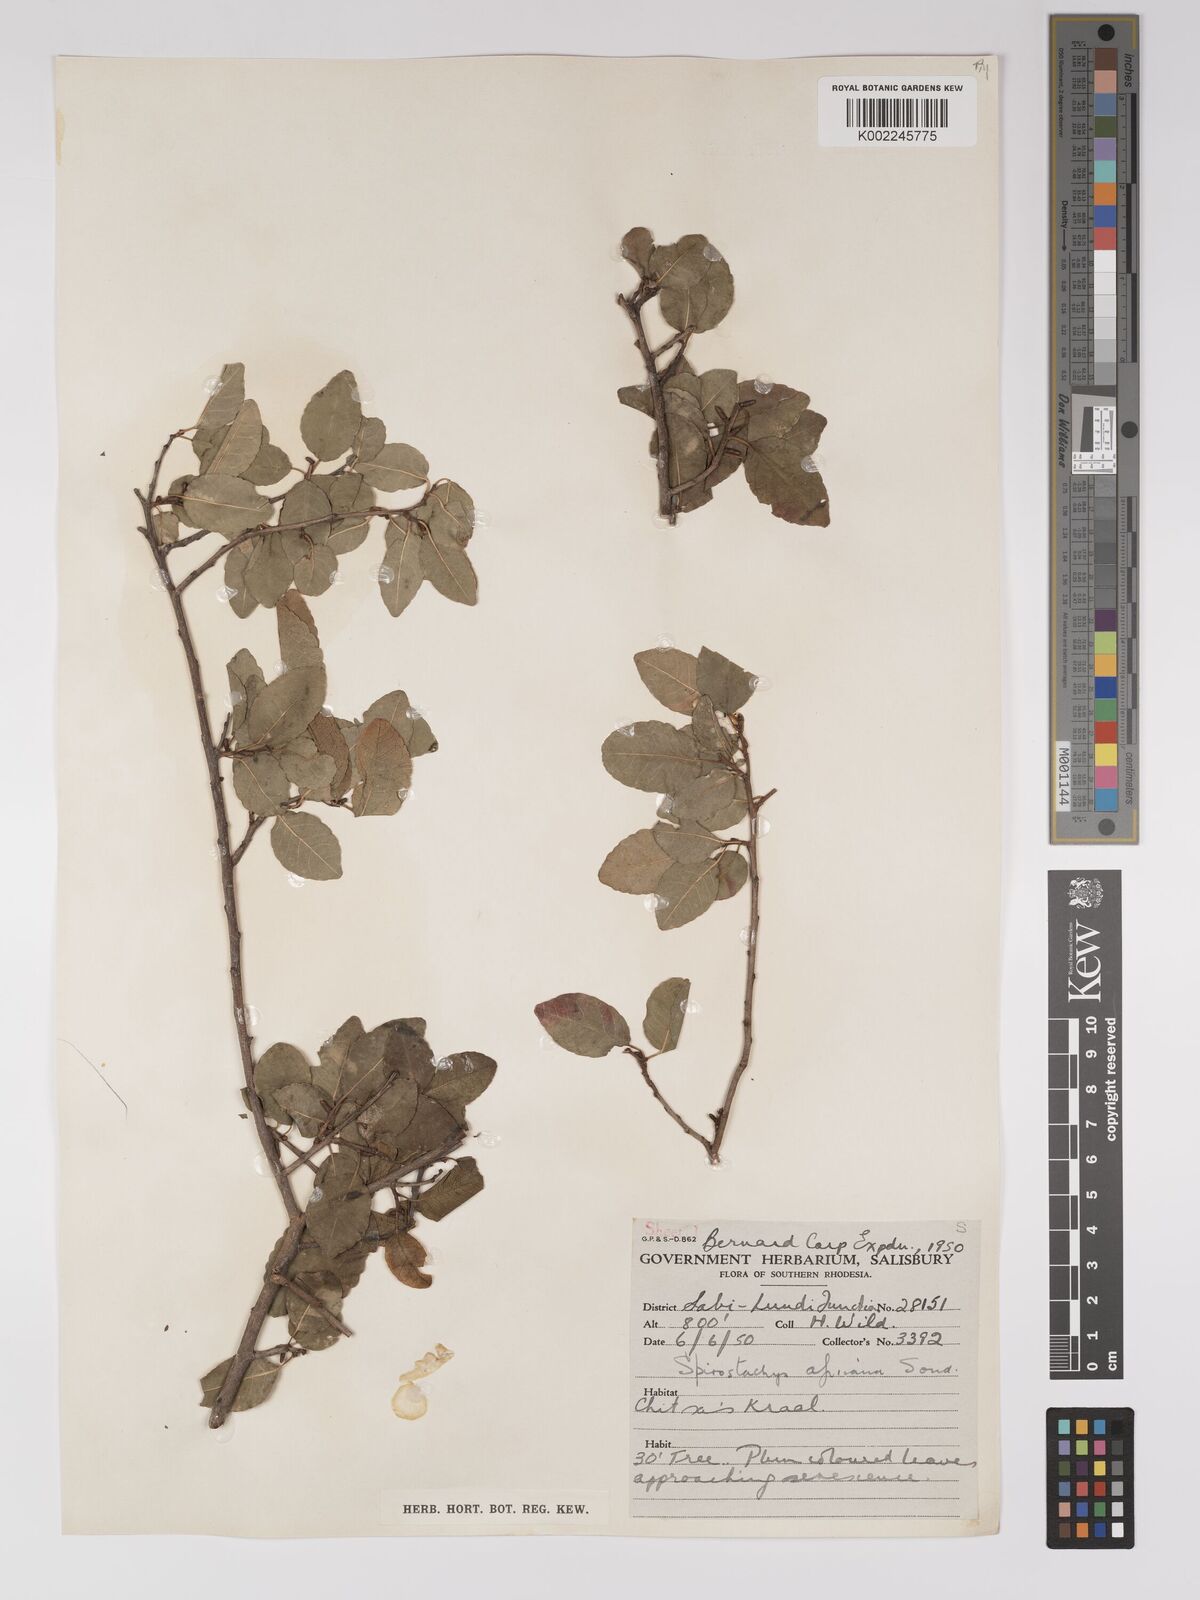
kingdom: Plantae
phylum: Tracheophyta
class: Magnoliopsida
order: Malpighiales
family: Euphorbiaceae
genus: Spirostachys
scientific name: Spirostachys africana
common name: Tamboti
